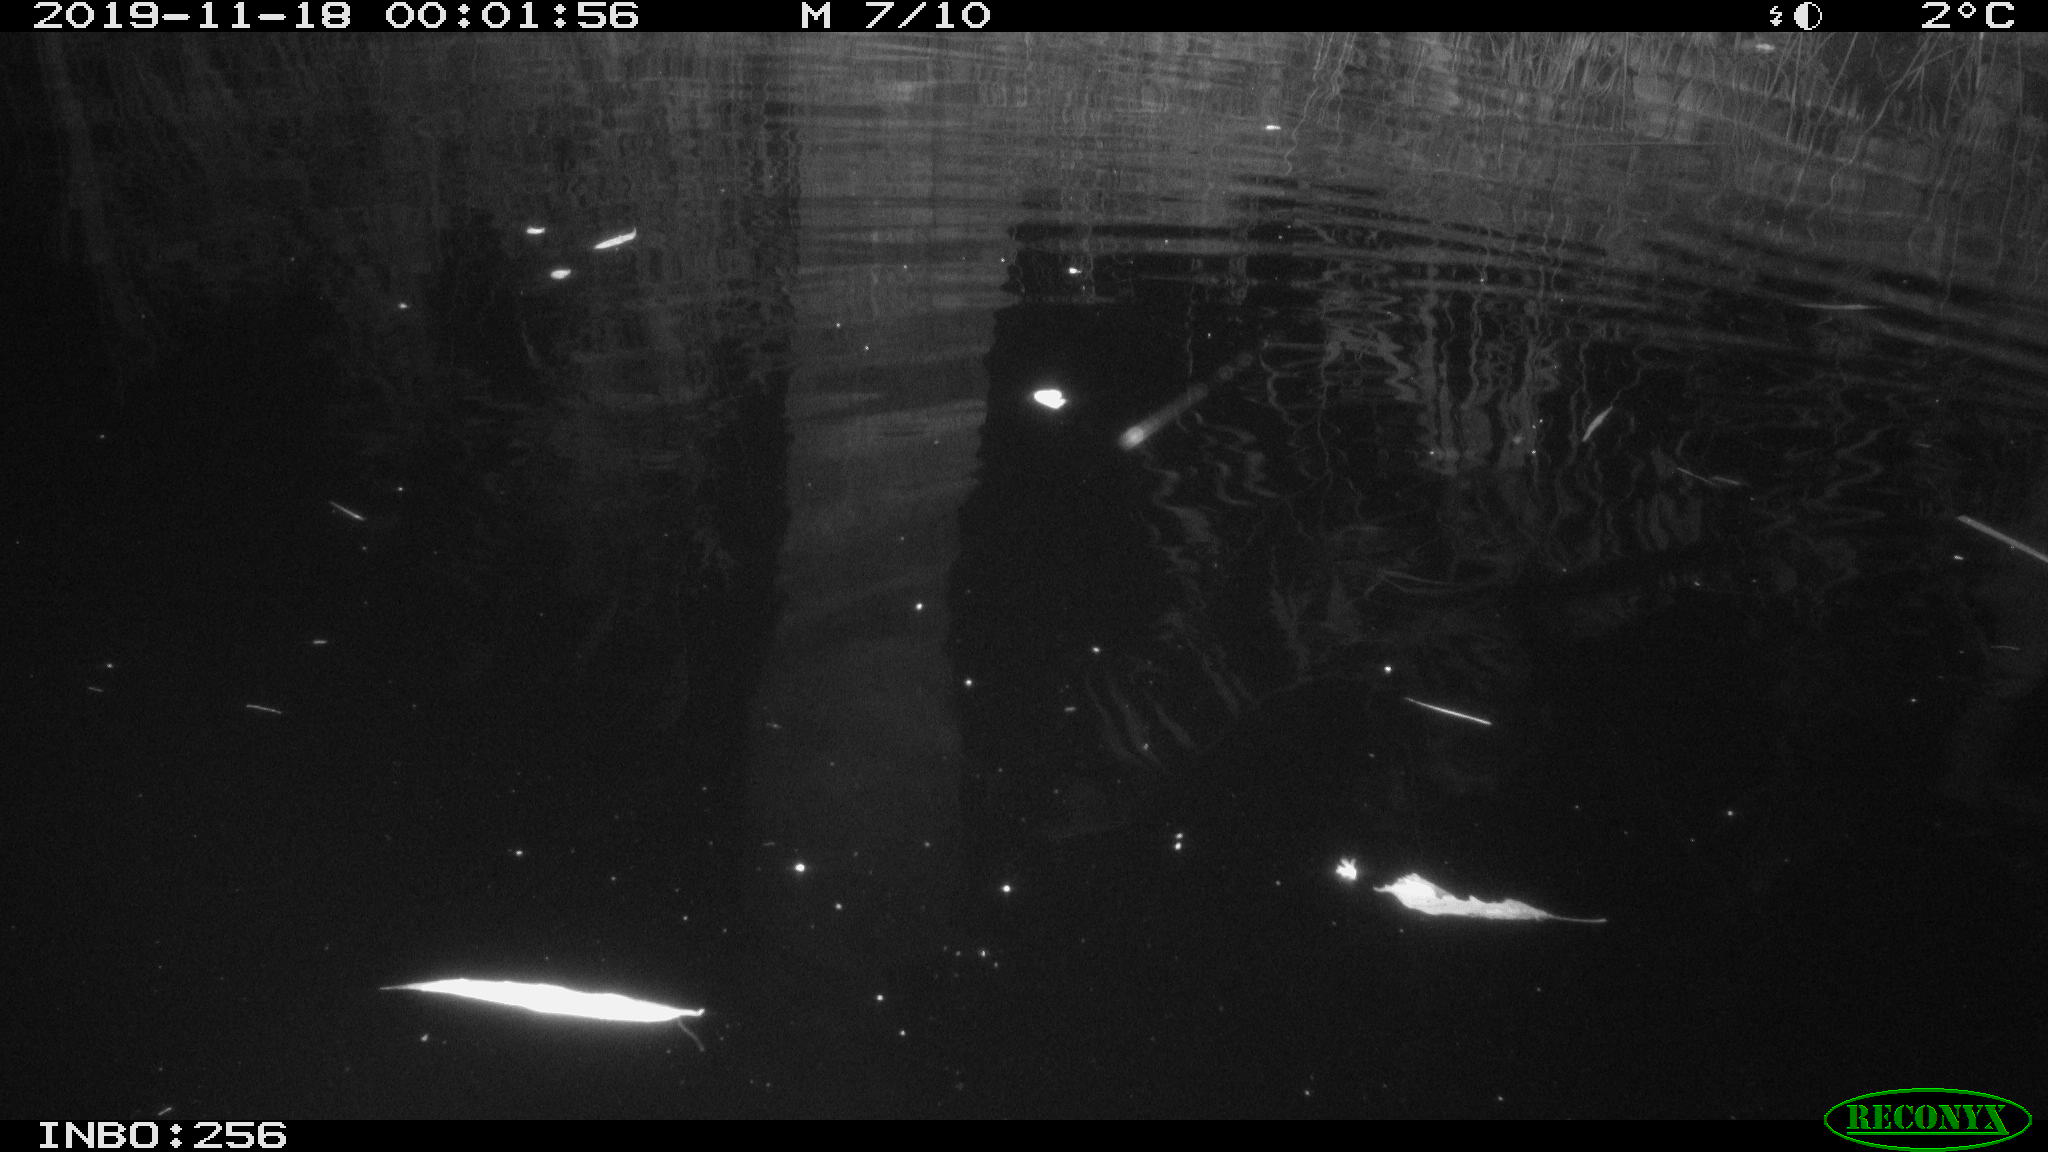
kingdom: Animalia
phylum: Chordata
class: Mammalia
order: Rodentia
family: Cricetidae
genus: Ondatra
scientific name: Ondatra zibethicus
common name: Muskrat
